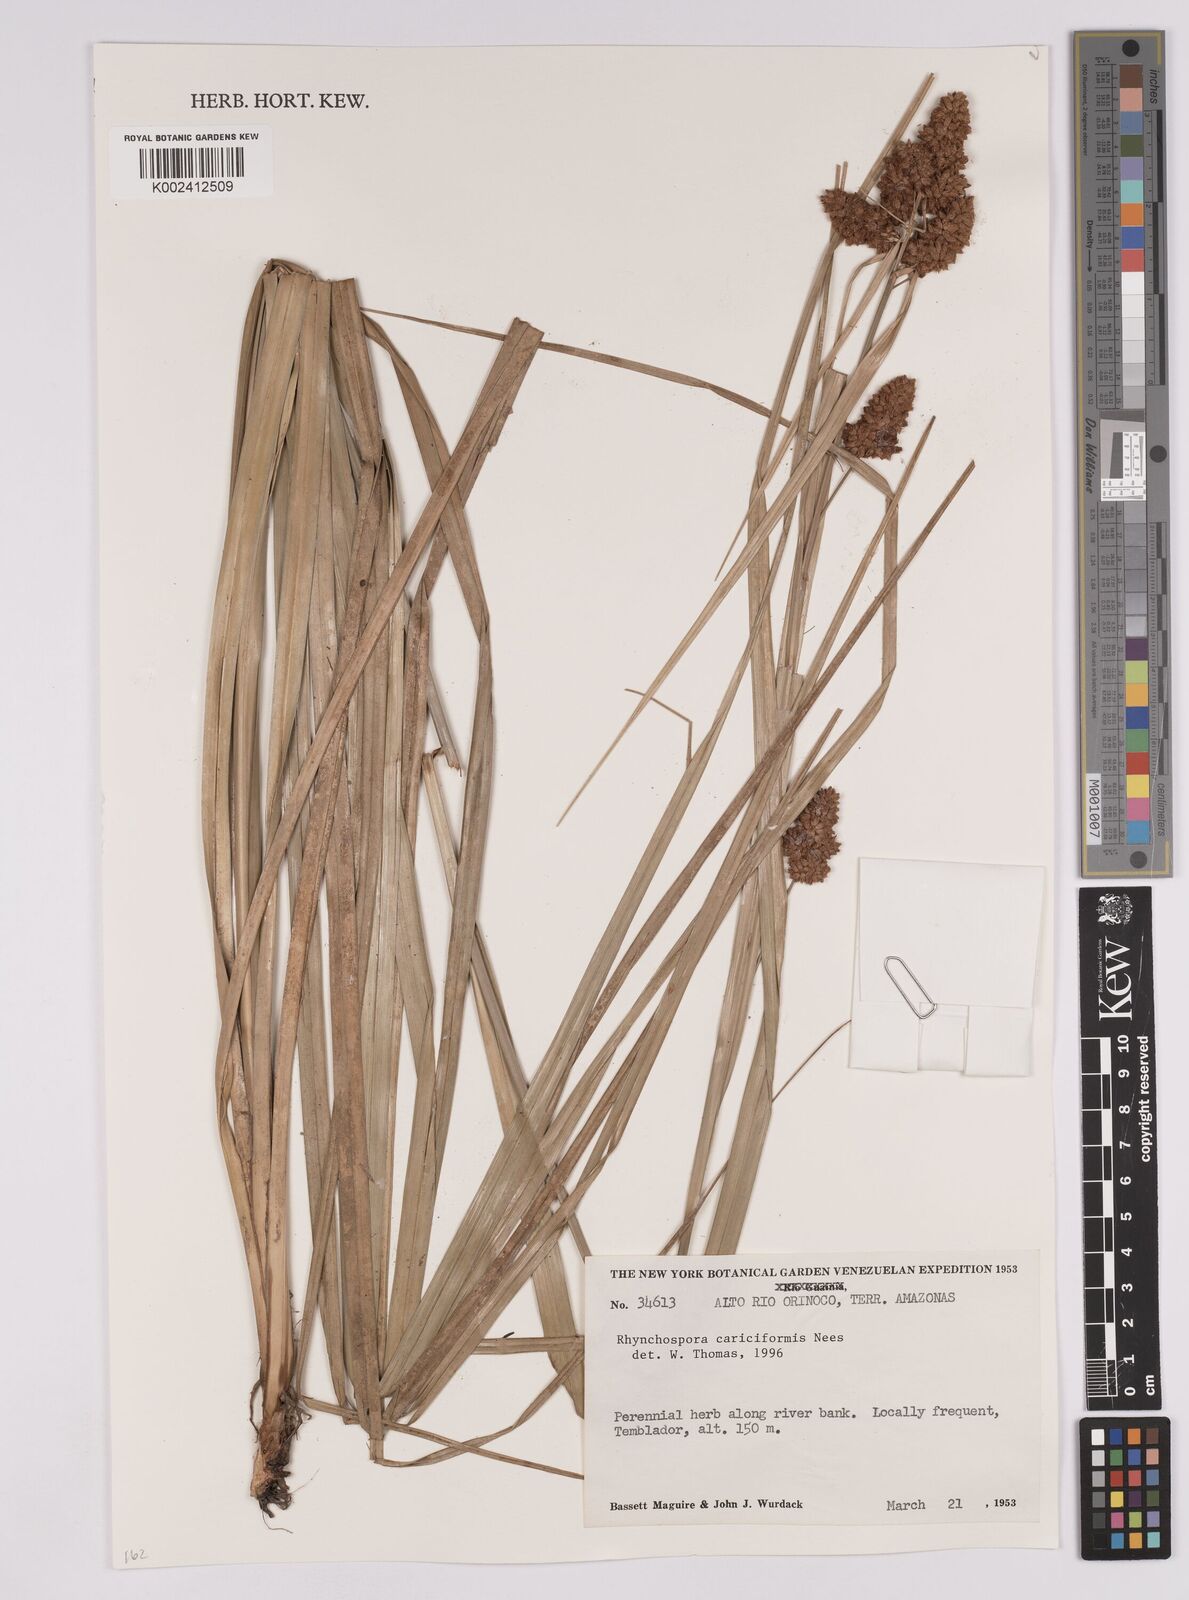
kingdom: Plantae
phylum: Tracheophyta
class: Liliopsida
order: Poales
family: Cyperaceae
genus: Rhynchospora
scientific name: Rhynchospora cariciformis
